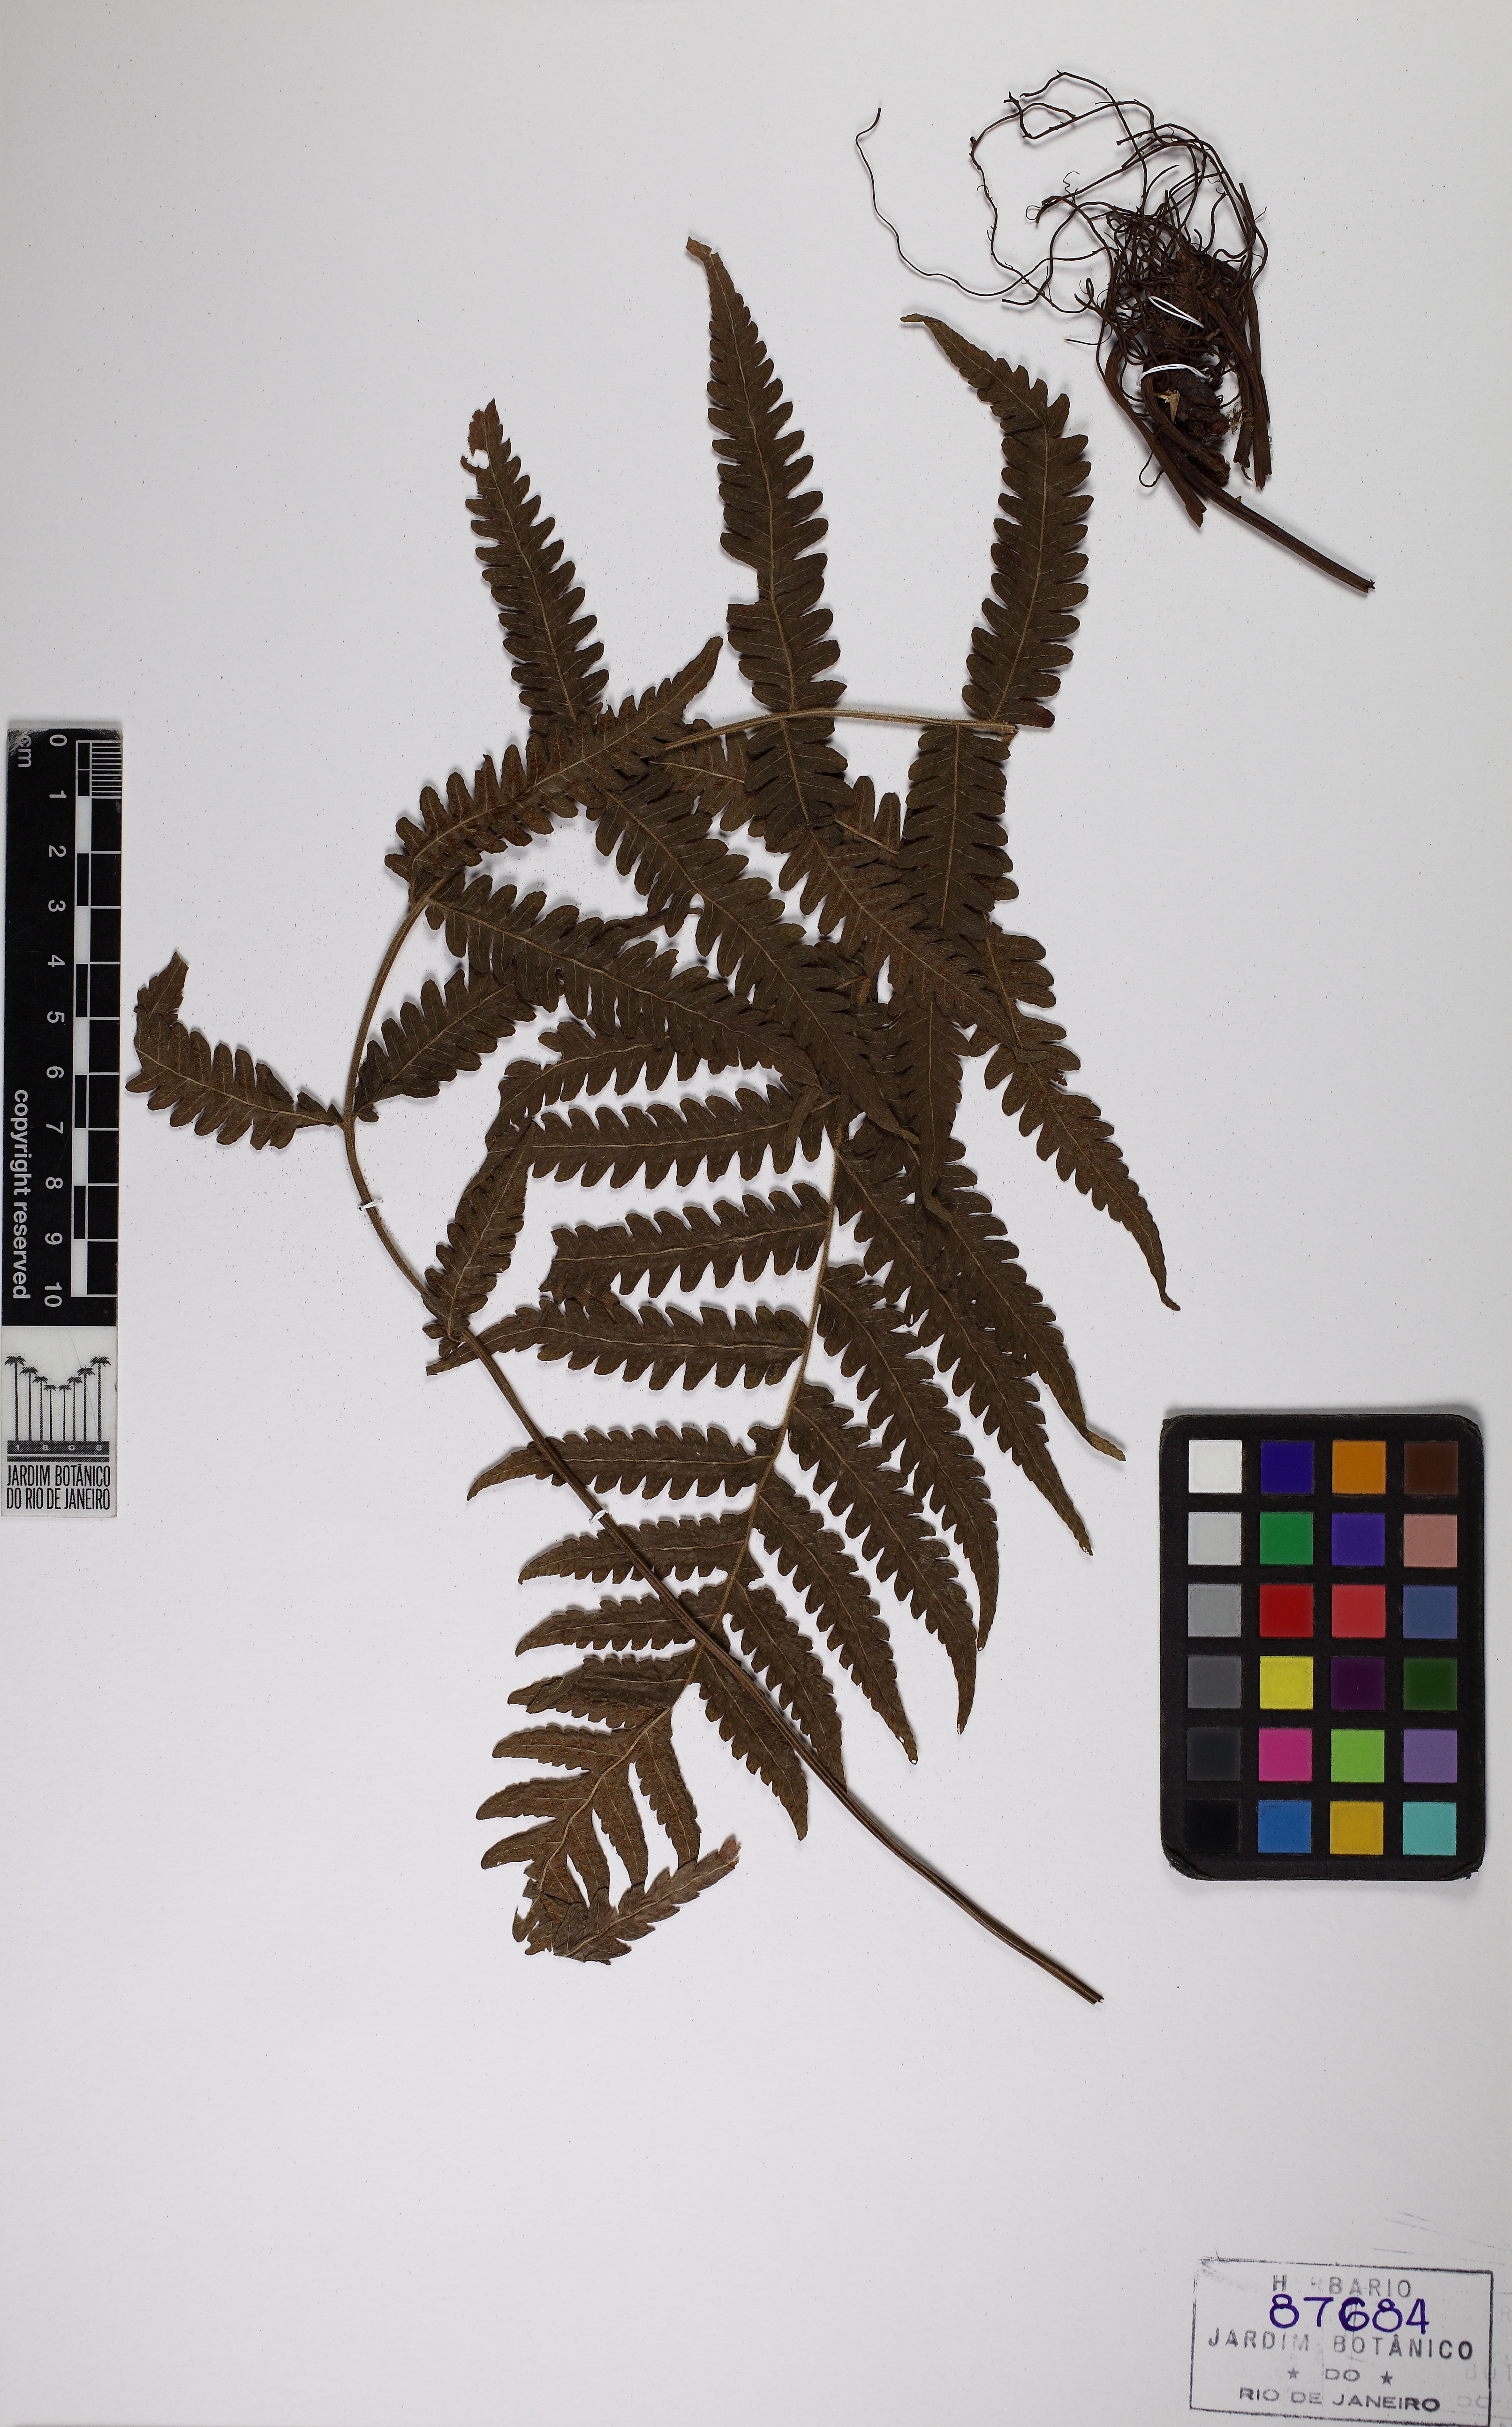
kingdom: Plantae
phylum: Tracheophyta
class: Polypodiopsida
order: Polypodiales
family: Thelypteridaceae
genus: Leptogramma
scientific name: Leptogramma pozoi
